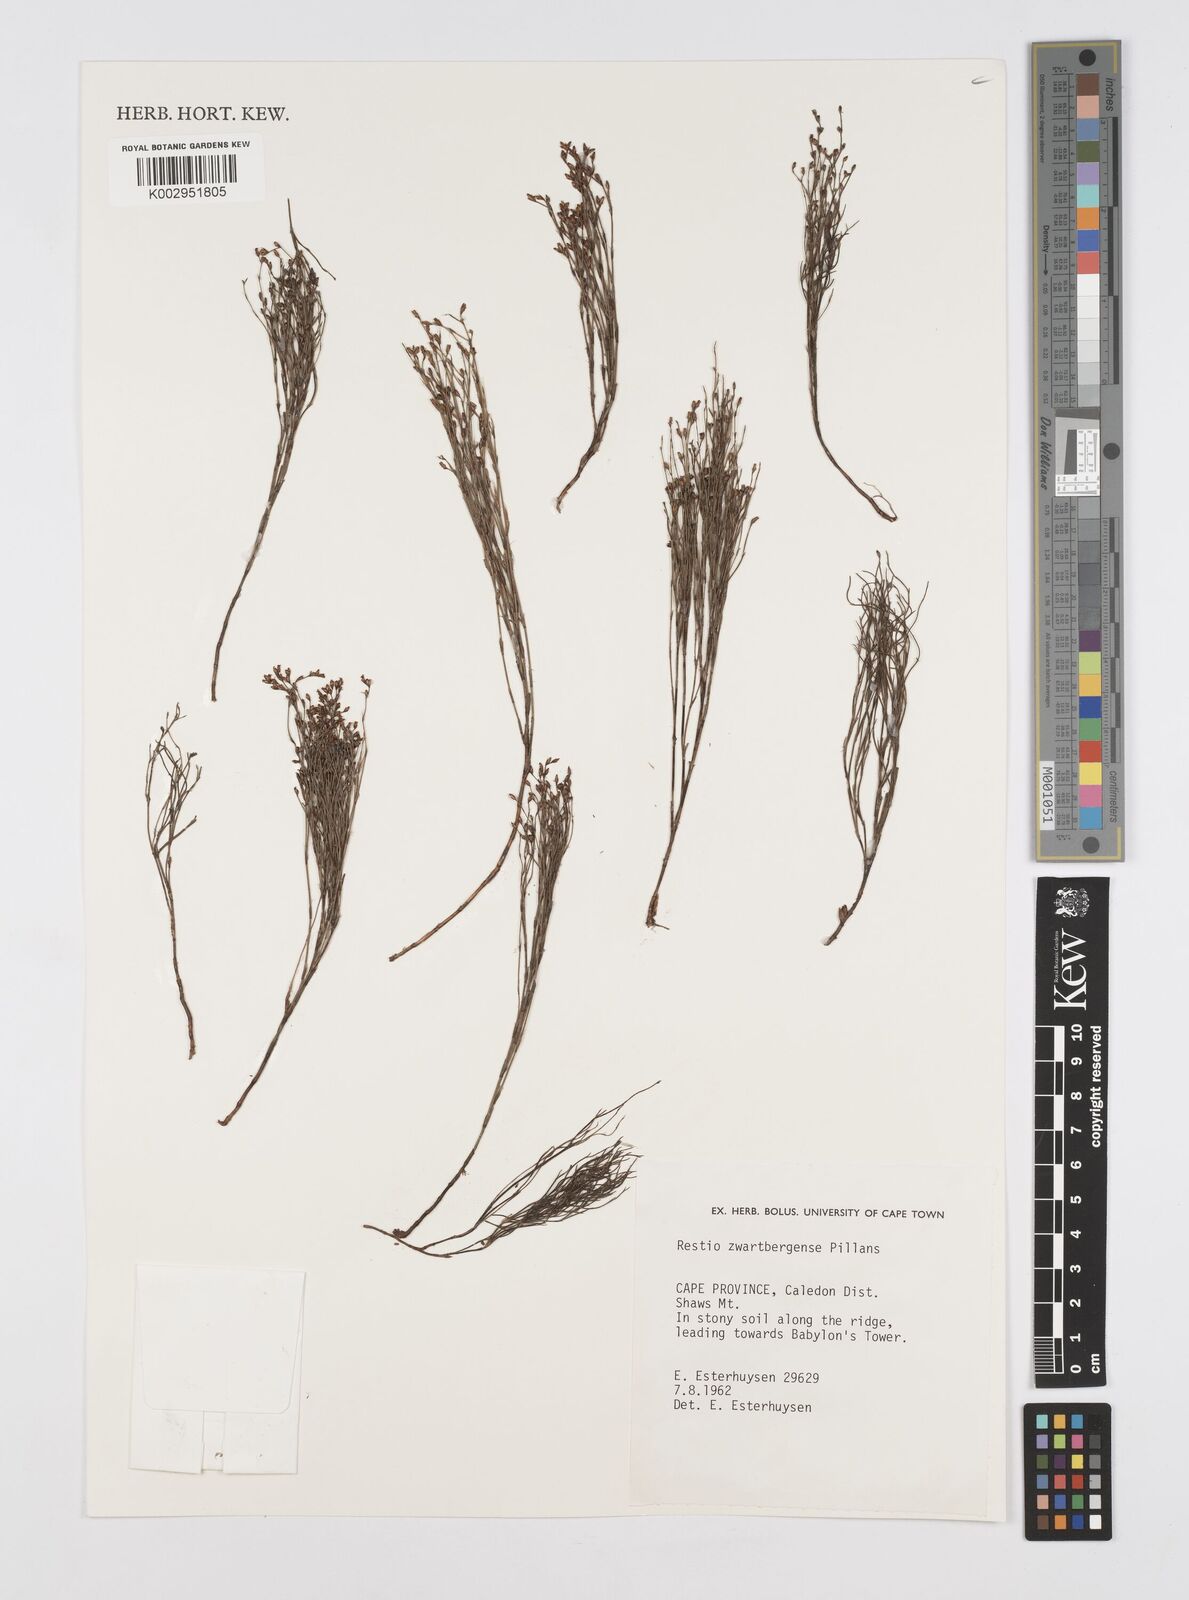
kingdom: Plantae
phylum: Tracheophyta
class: Liliopsida
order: Poales
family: Restionaceae
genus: Restio
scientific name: Restio zwartbergensis
